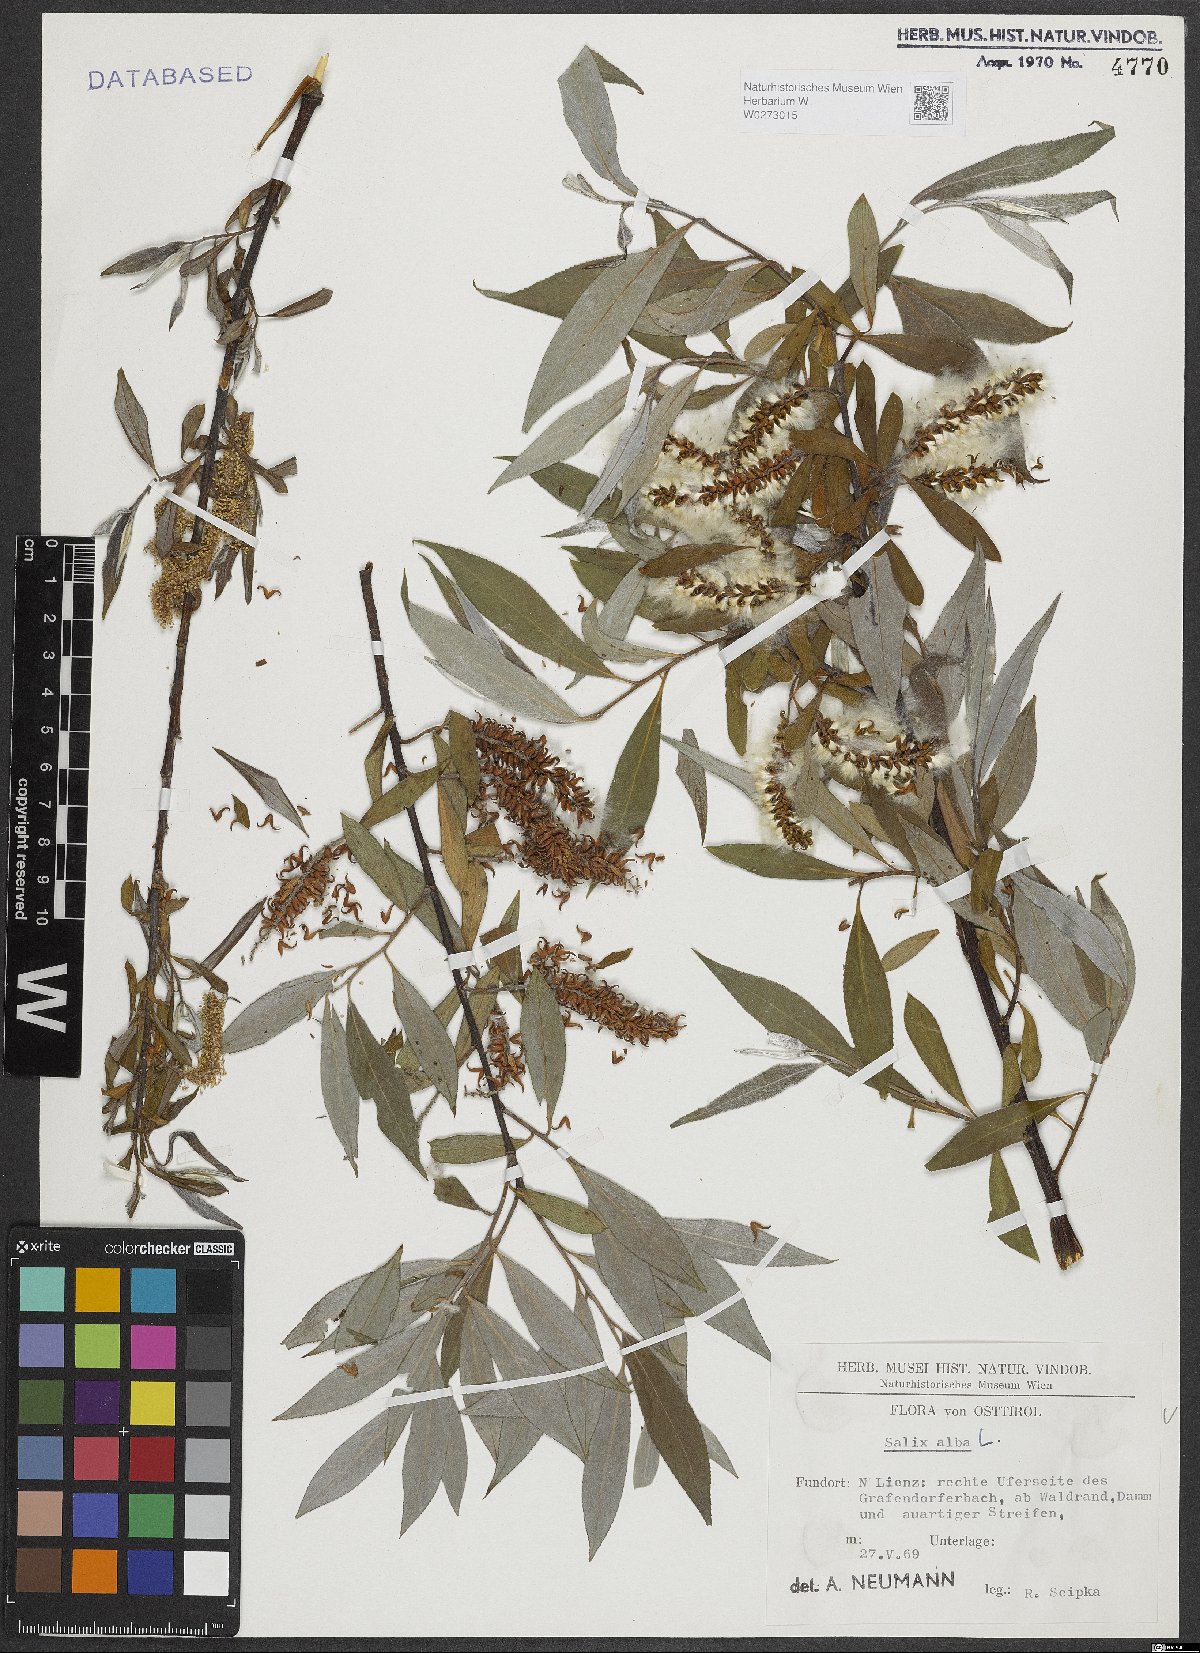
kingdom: Plantae
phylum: Tracheophyta
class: Magnoliopsida
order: Malpighiales
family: Salicaceae
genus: Salix
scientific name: Salix alba
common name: White willow
